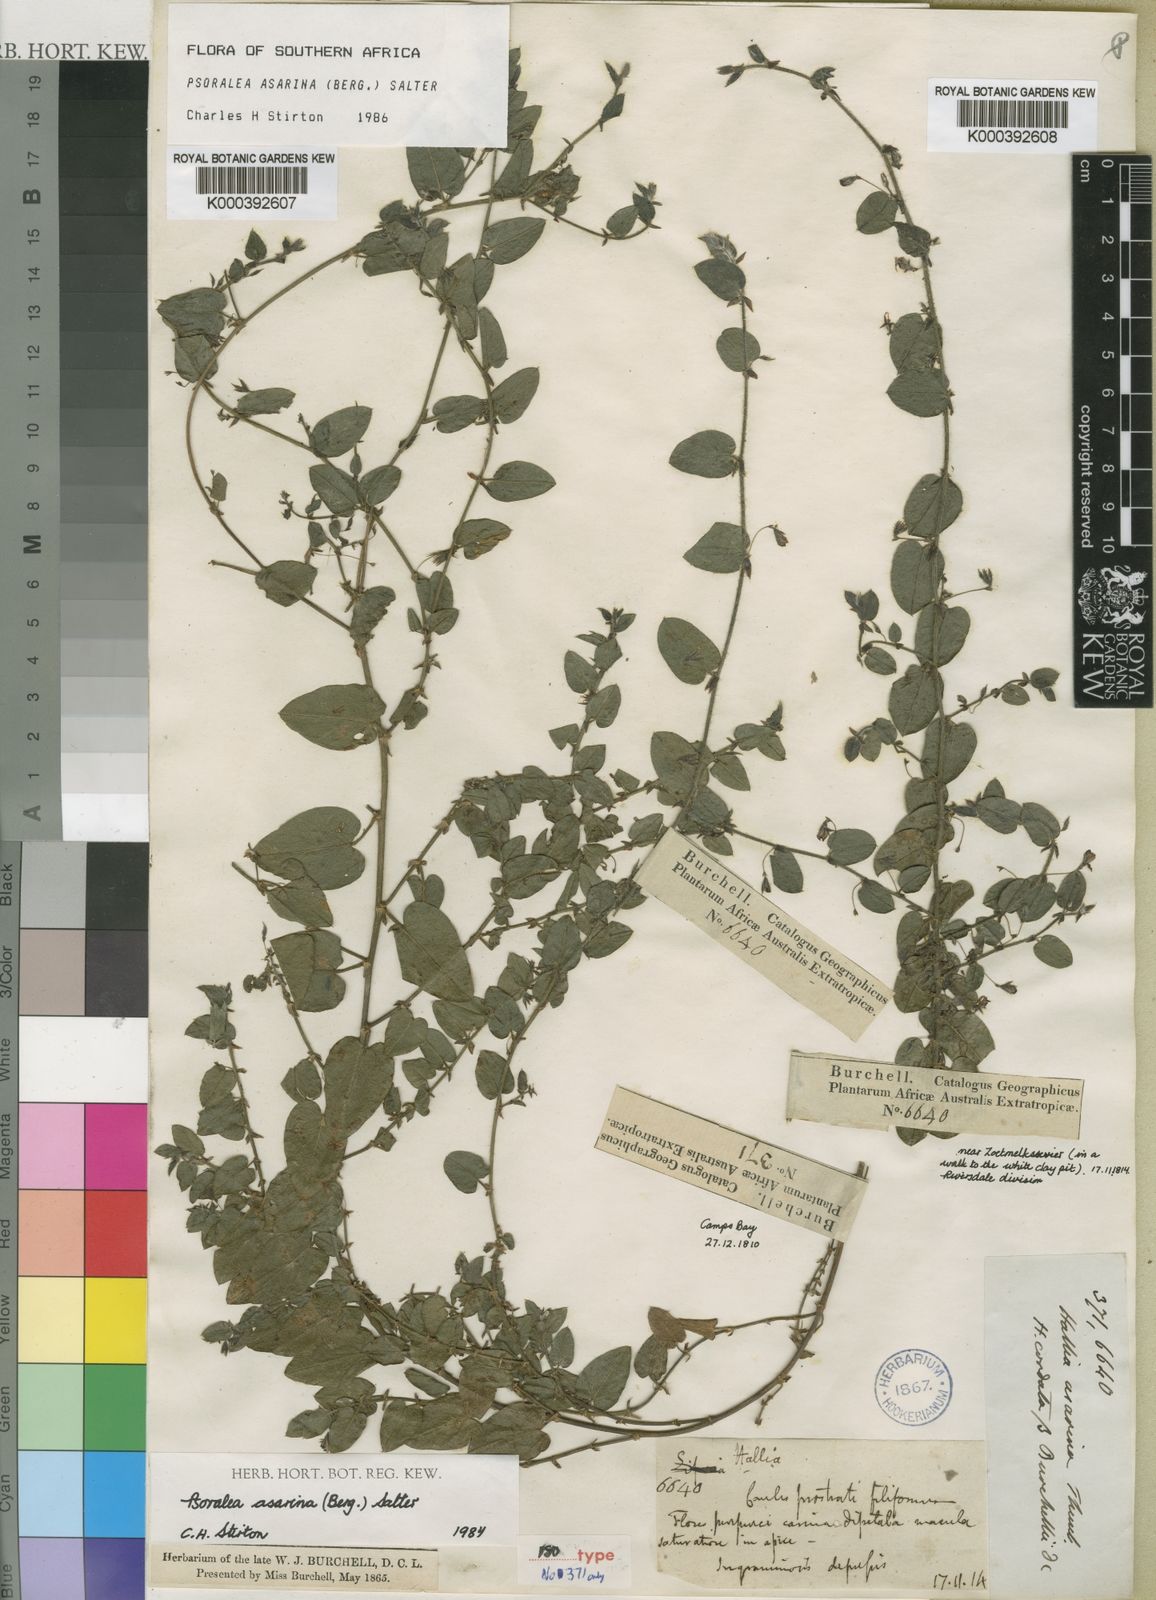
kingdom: Plantae
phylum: Tracheophyta
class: Magnoliopsida
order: Fabales
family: Fabaceae
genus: Psoralea
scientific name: Psoralea asarina
